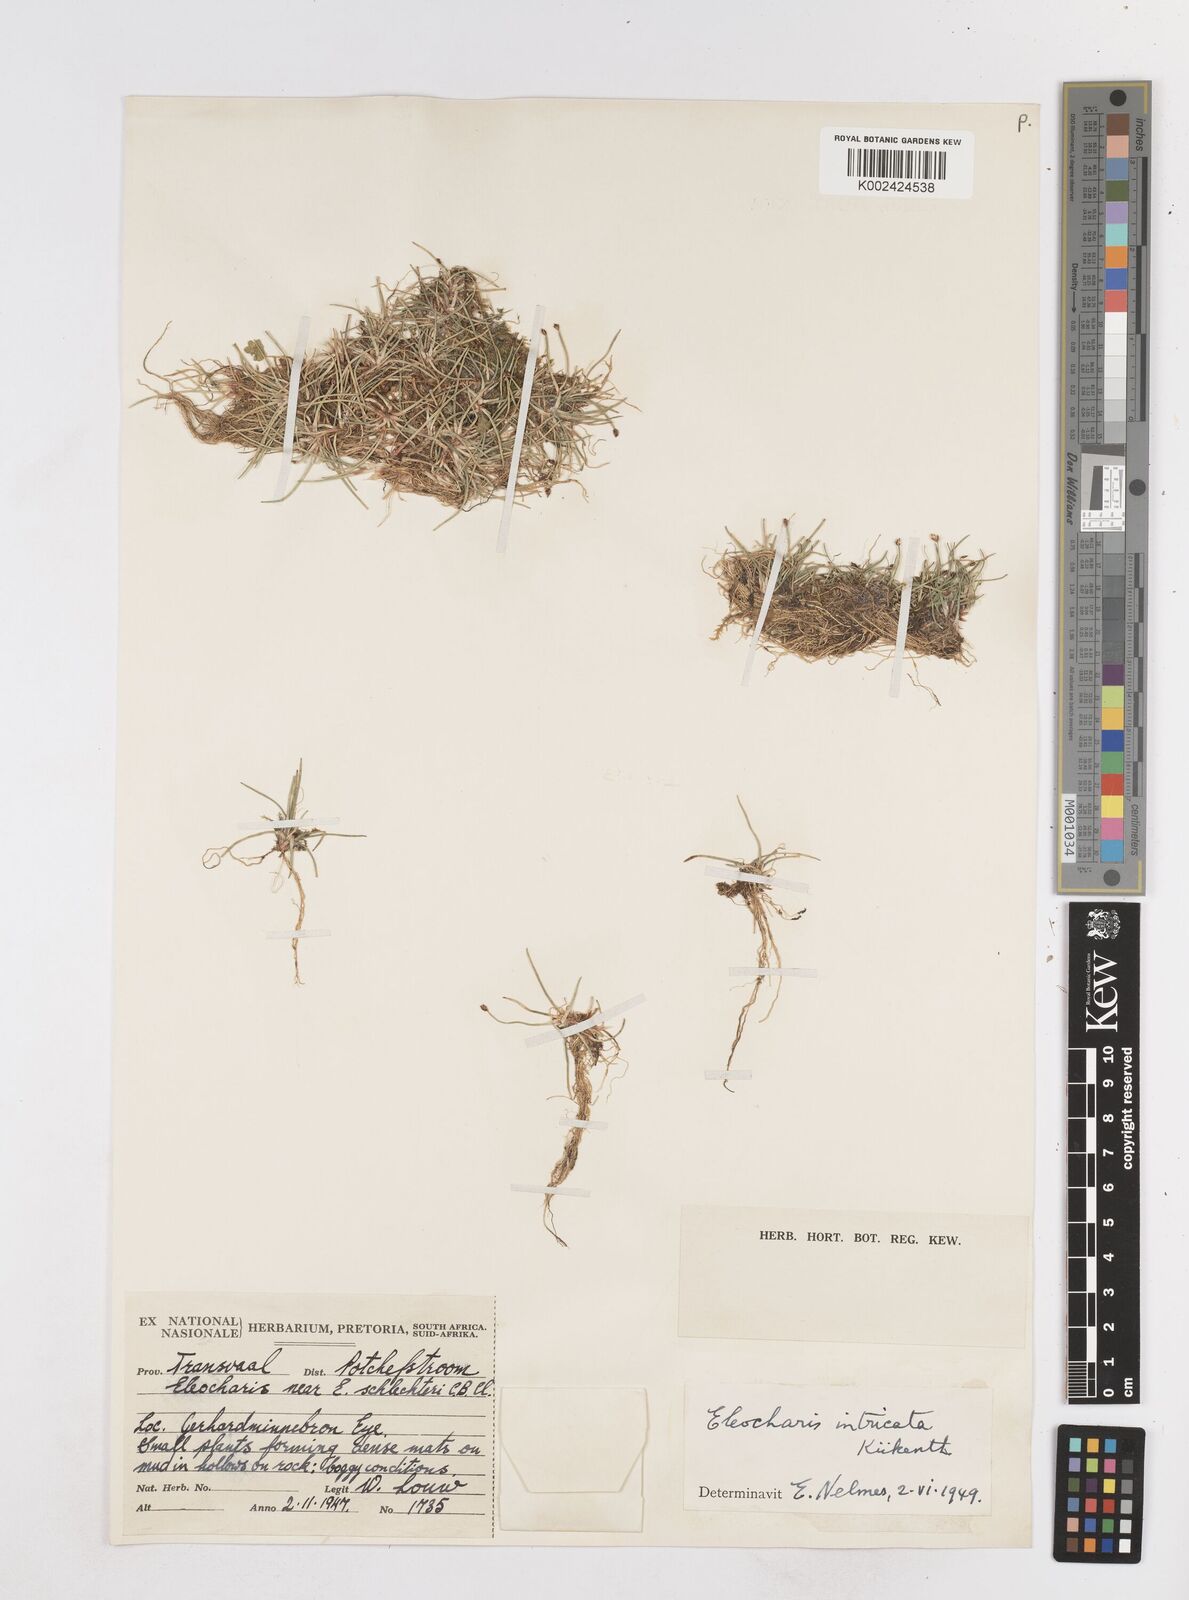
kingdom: Plantae
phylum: Tracheophyta
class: Liliopsida
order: Poales
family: Cyperaceae
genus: Eleocharis
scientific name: Eleocharis caduca
